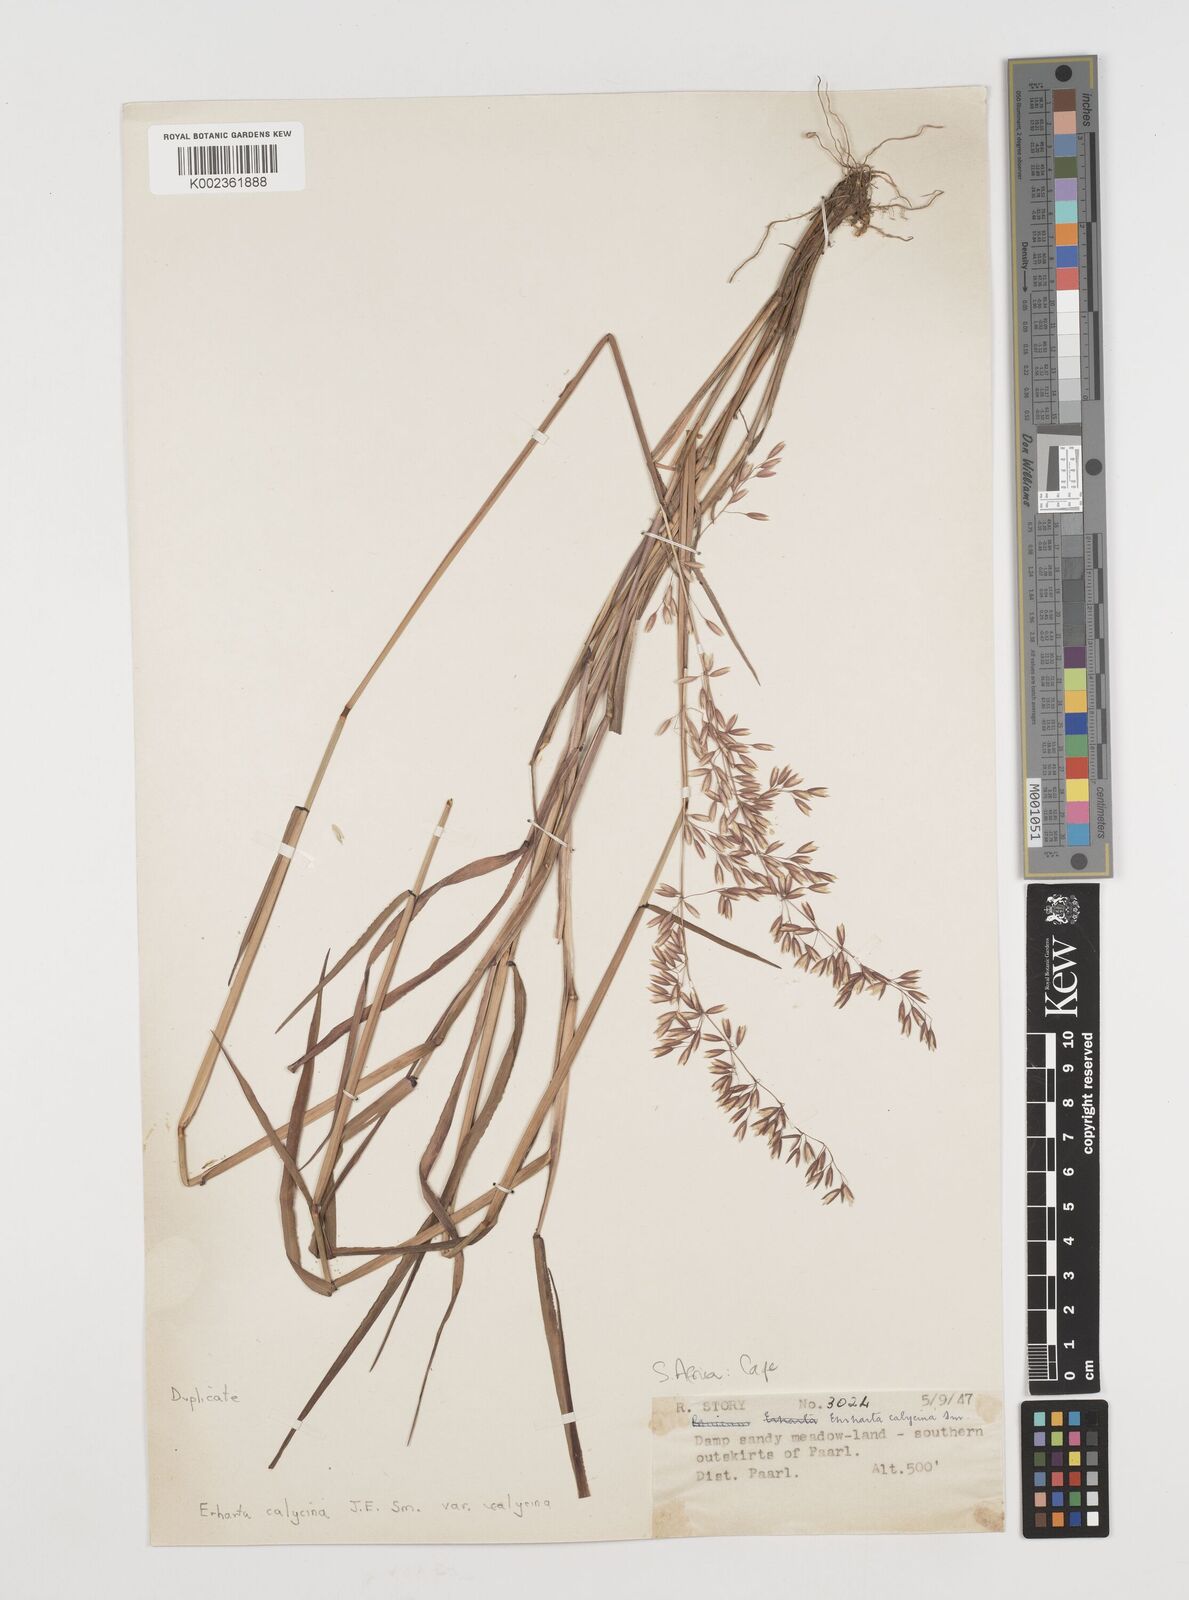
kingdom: Plantae
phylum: Tracheophyta
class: Liliopsida
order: Poales
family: Poaceae
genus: Ehrharta
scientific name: Ehrharta
